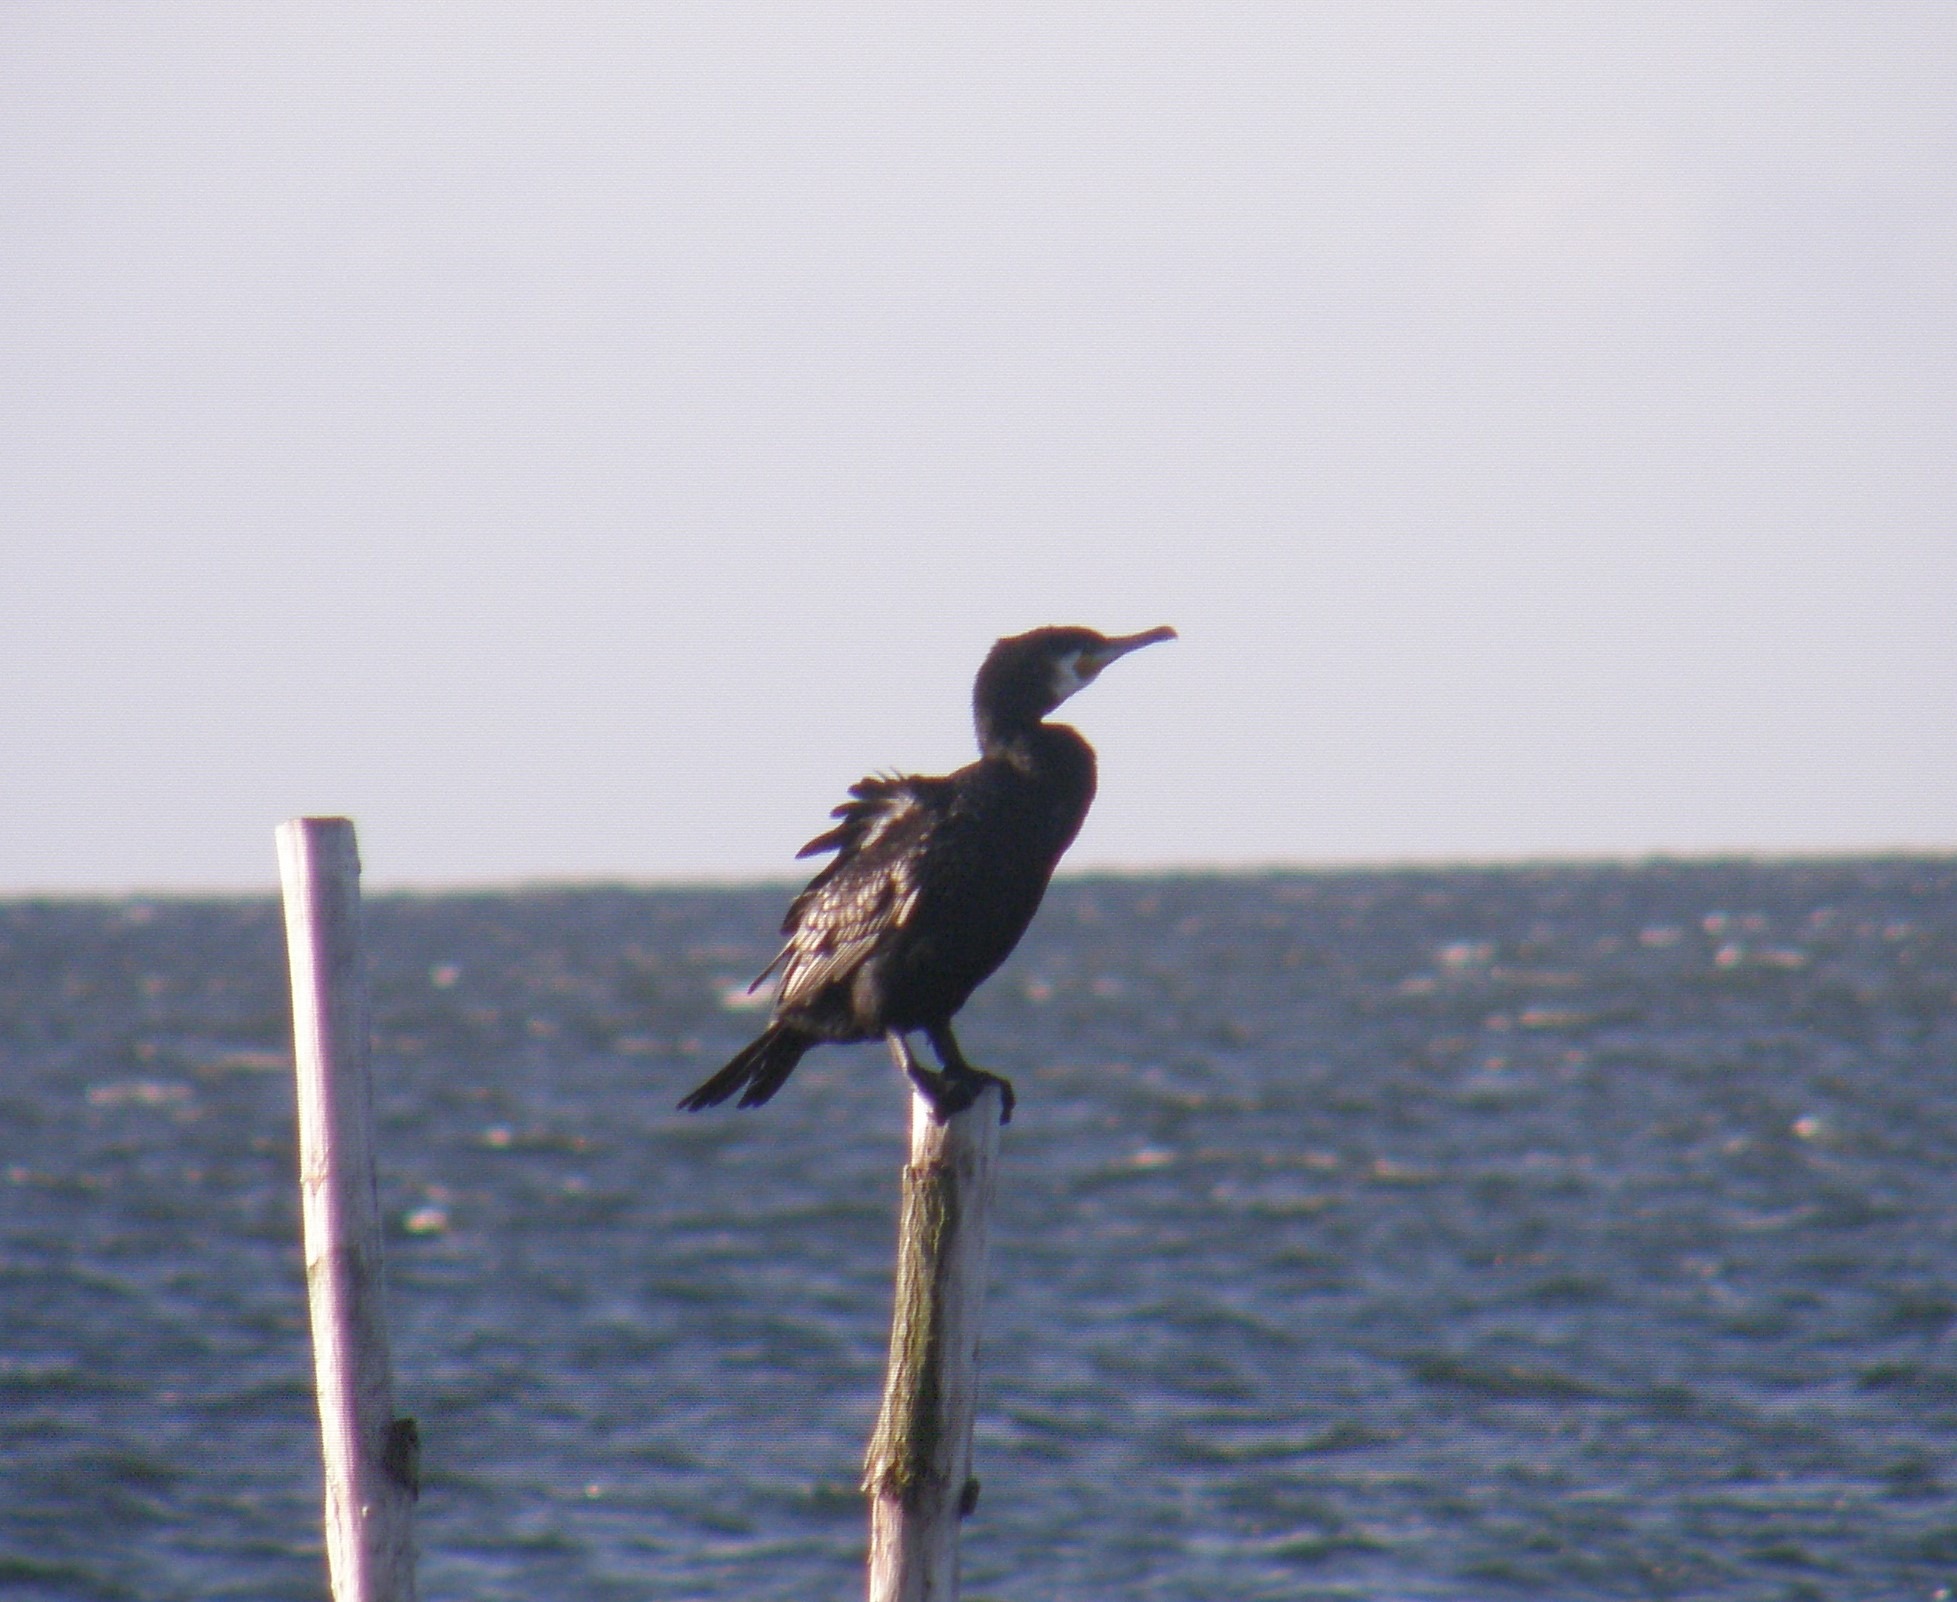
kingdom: Animalia
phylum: Chordata
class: Aves
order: Suliformes
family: Phalacrocoracidae
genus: Phalacrocorax
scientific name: Phalacrocorax carbo
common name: Skarv
